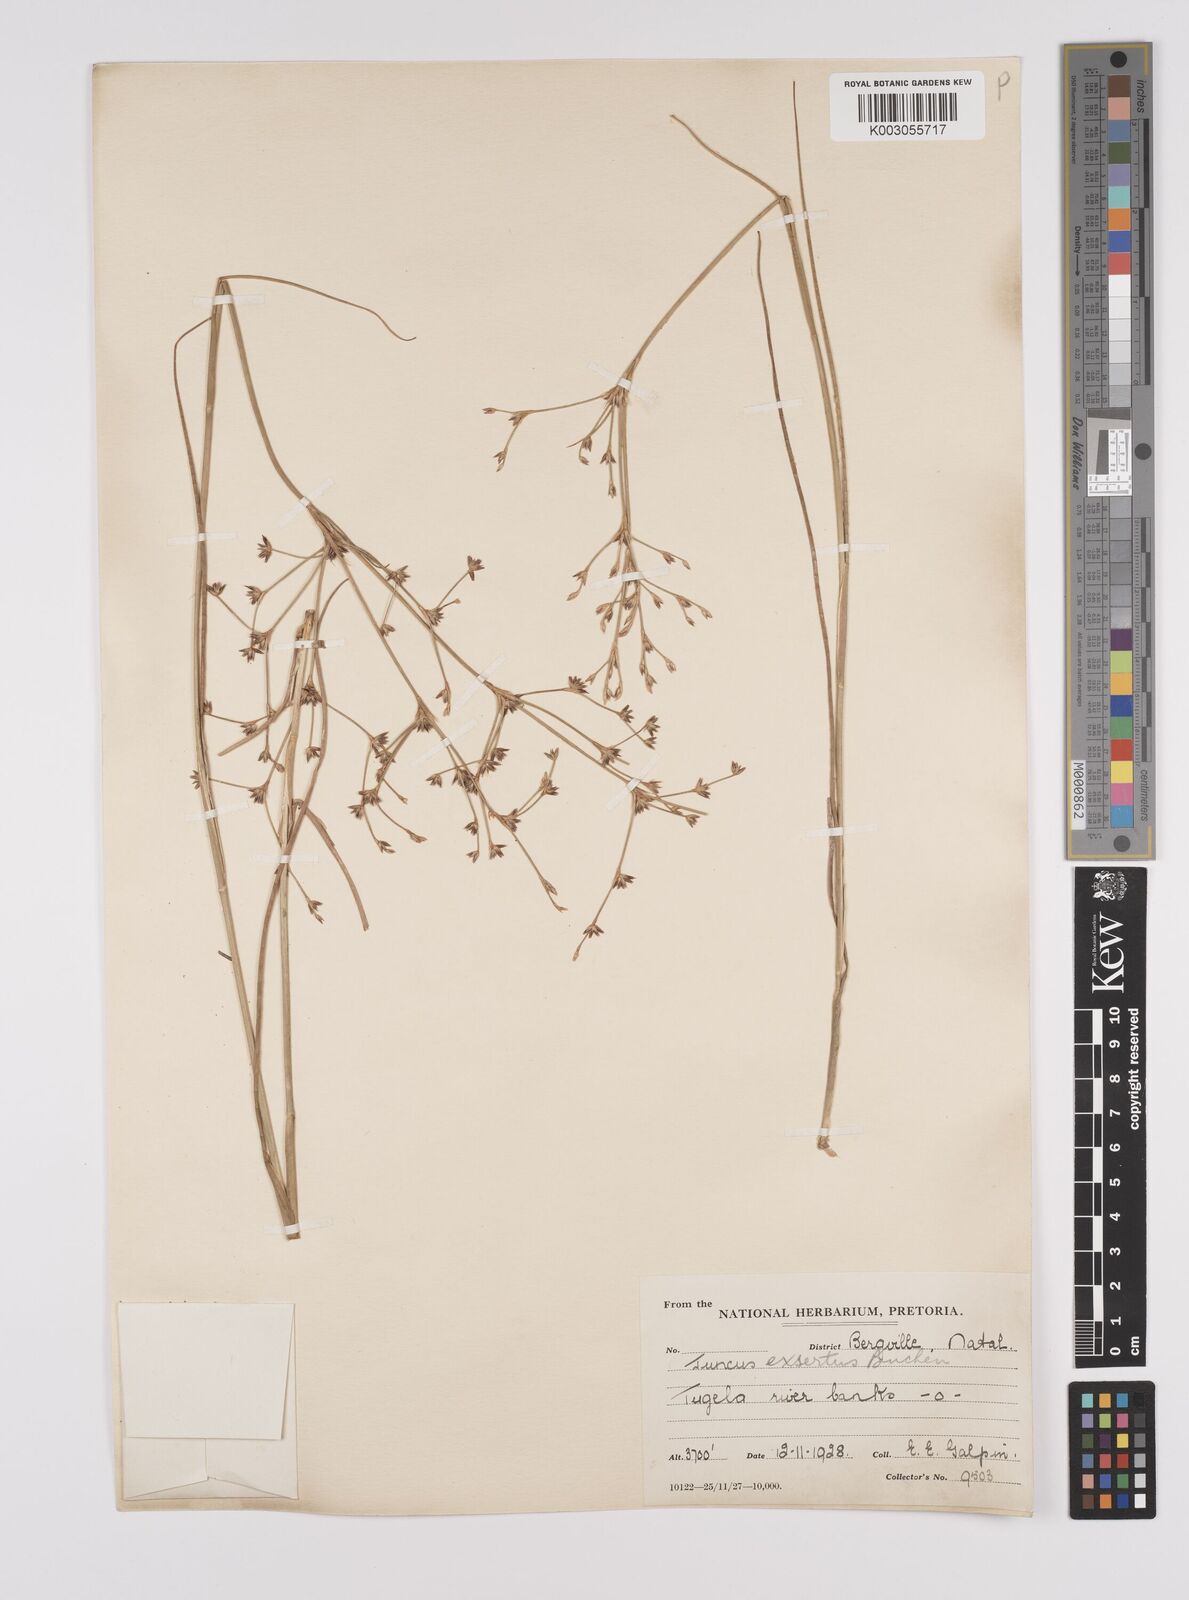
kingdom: Plantae
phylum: Tracheophyta
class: Liliopsida
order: Poales
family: Juncaceae
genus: Juncus
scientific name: Juncus exsertus
